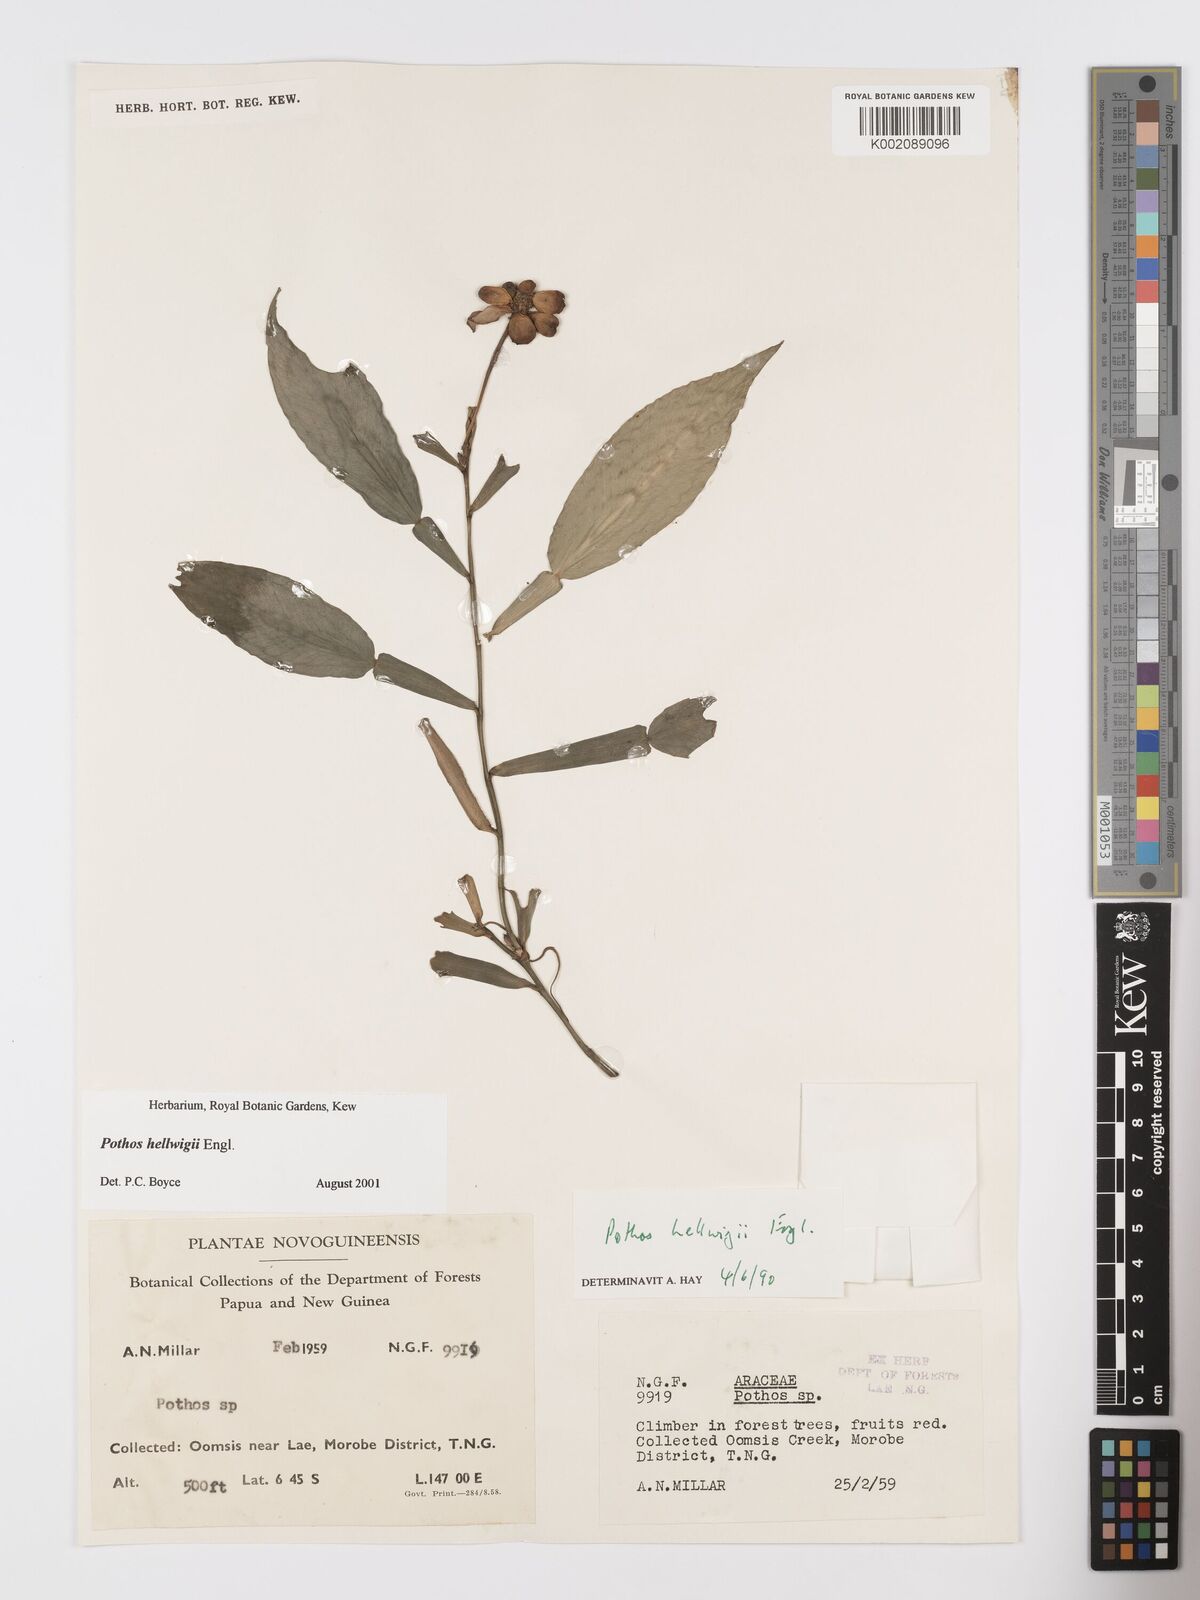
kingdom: Plantae
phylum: Tracheophyta
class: Liliopsida
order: Alismatales
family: Araceae
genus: Pothos
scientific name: Pothos hellwigii
